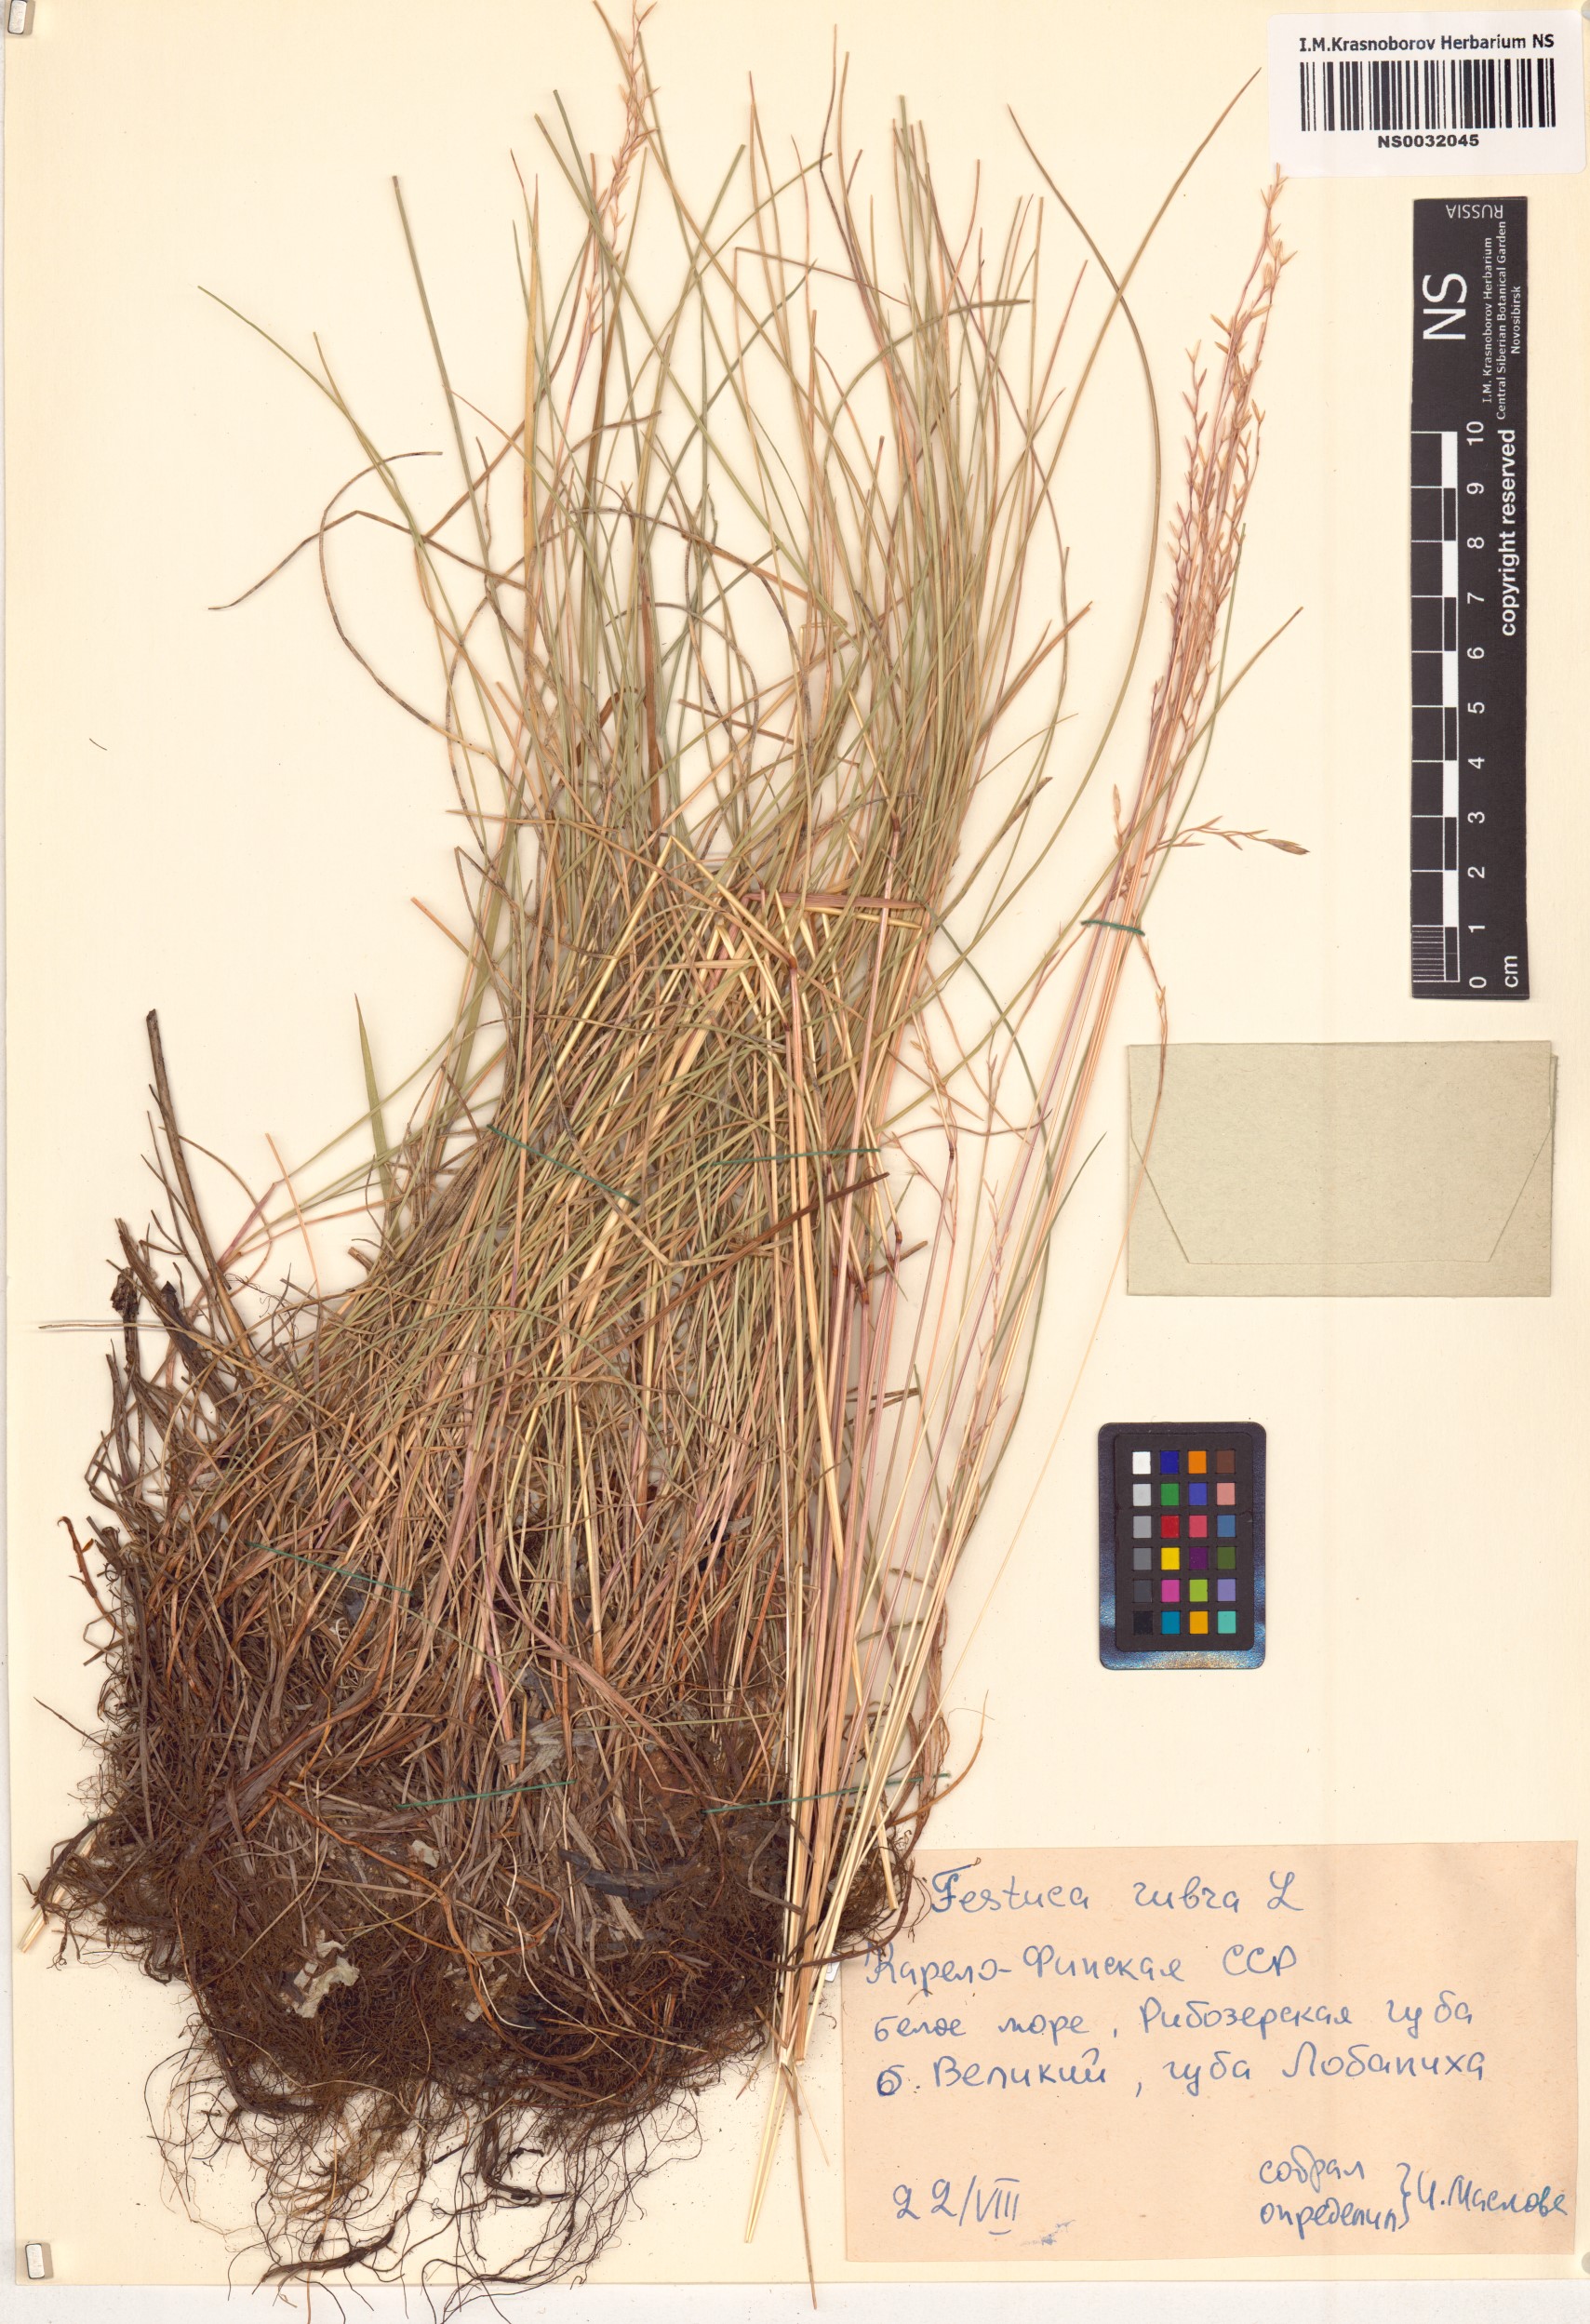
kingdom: Plantae
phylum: Tracheophyta
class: Liliopsida
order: Poales
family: Poaceae
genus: Festuca
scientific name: Festuca rubra
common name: Red fescue
